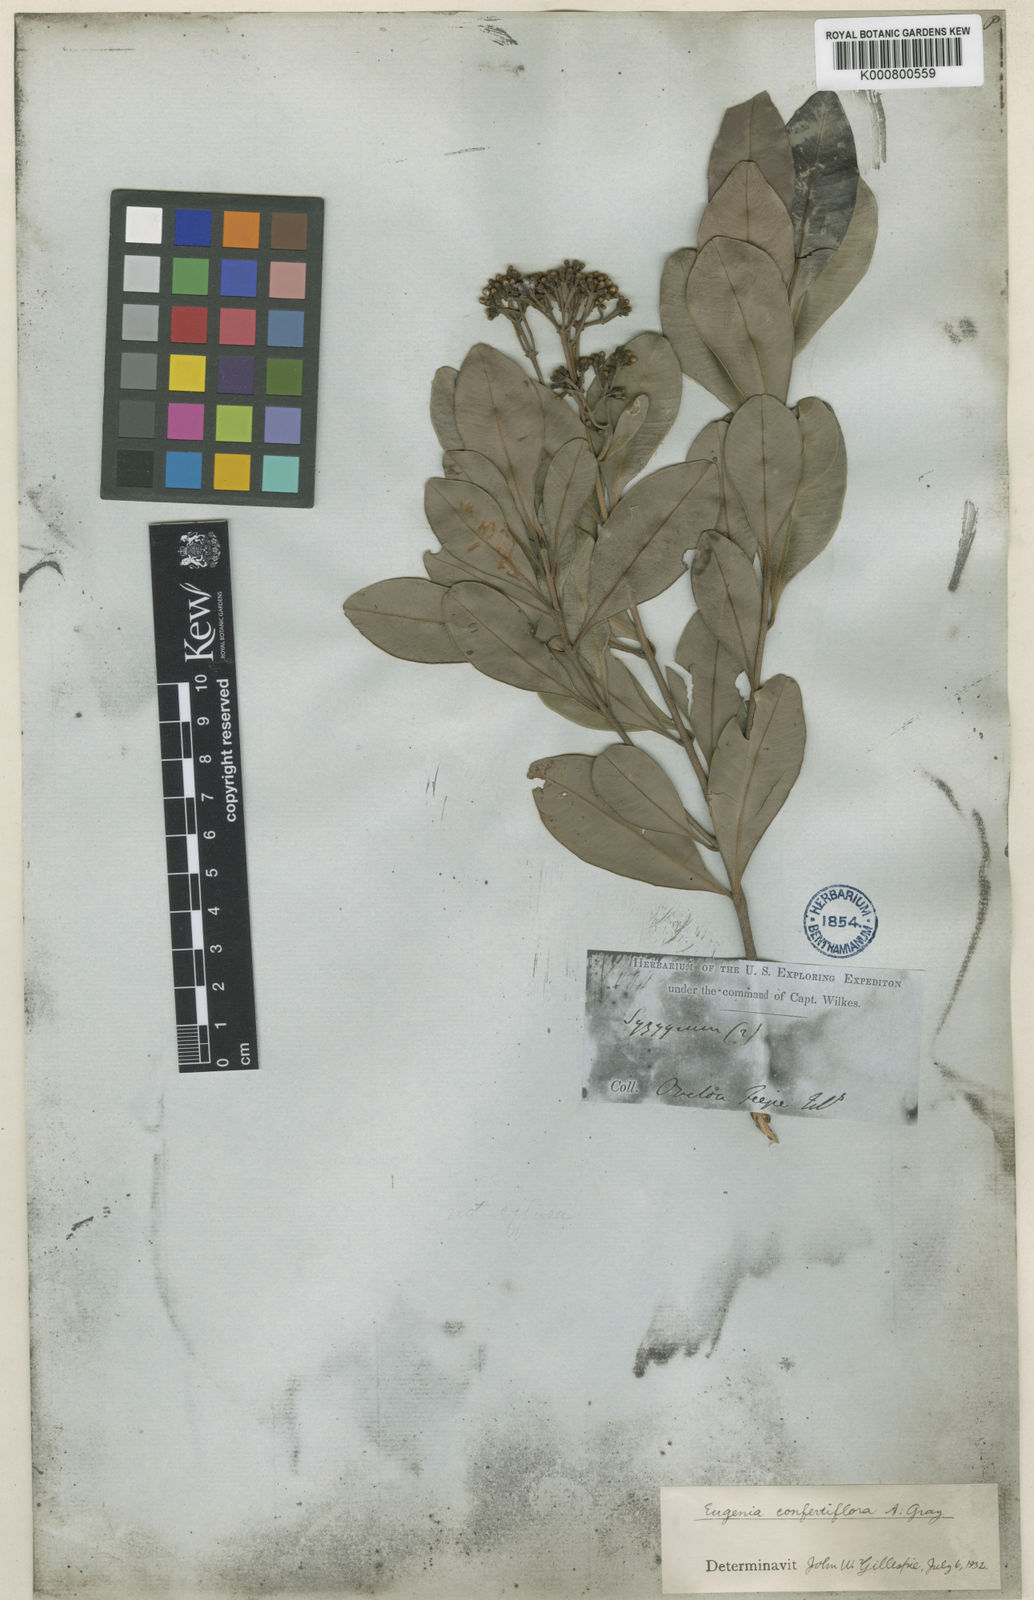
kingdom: Plantae
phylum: Tracheophyta
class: Magnoliopsida
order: Myrtales
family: Myrtaceae
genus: Syzygium
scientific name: Syzygium
